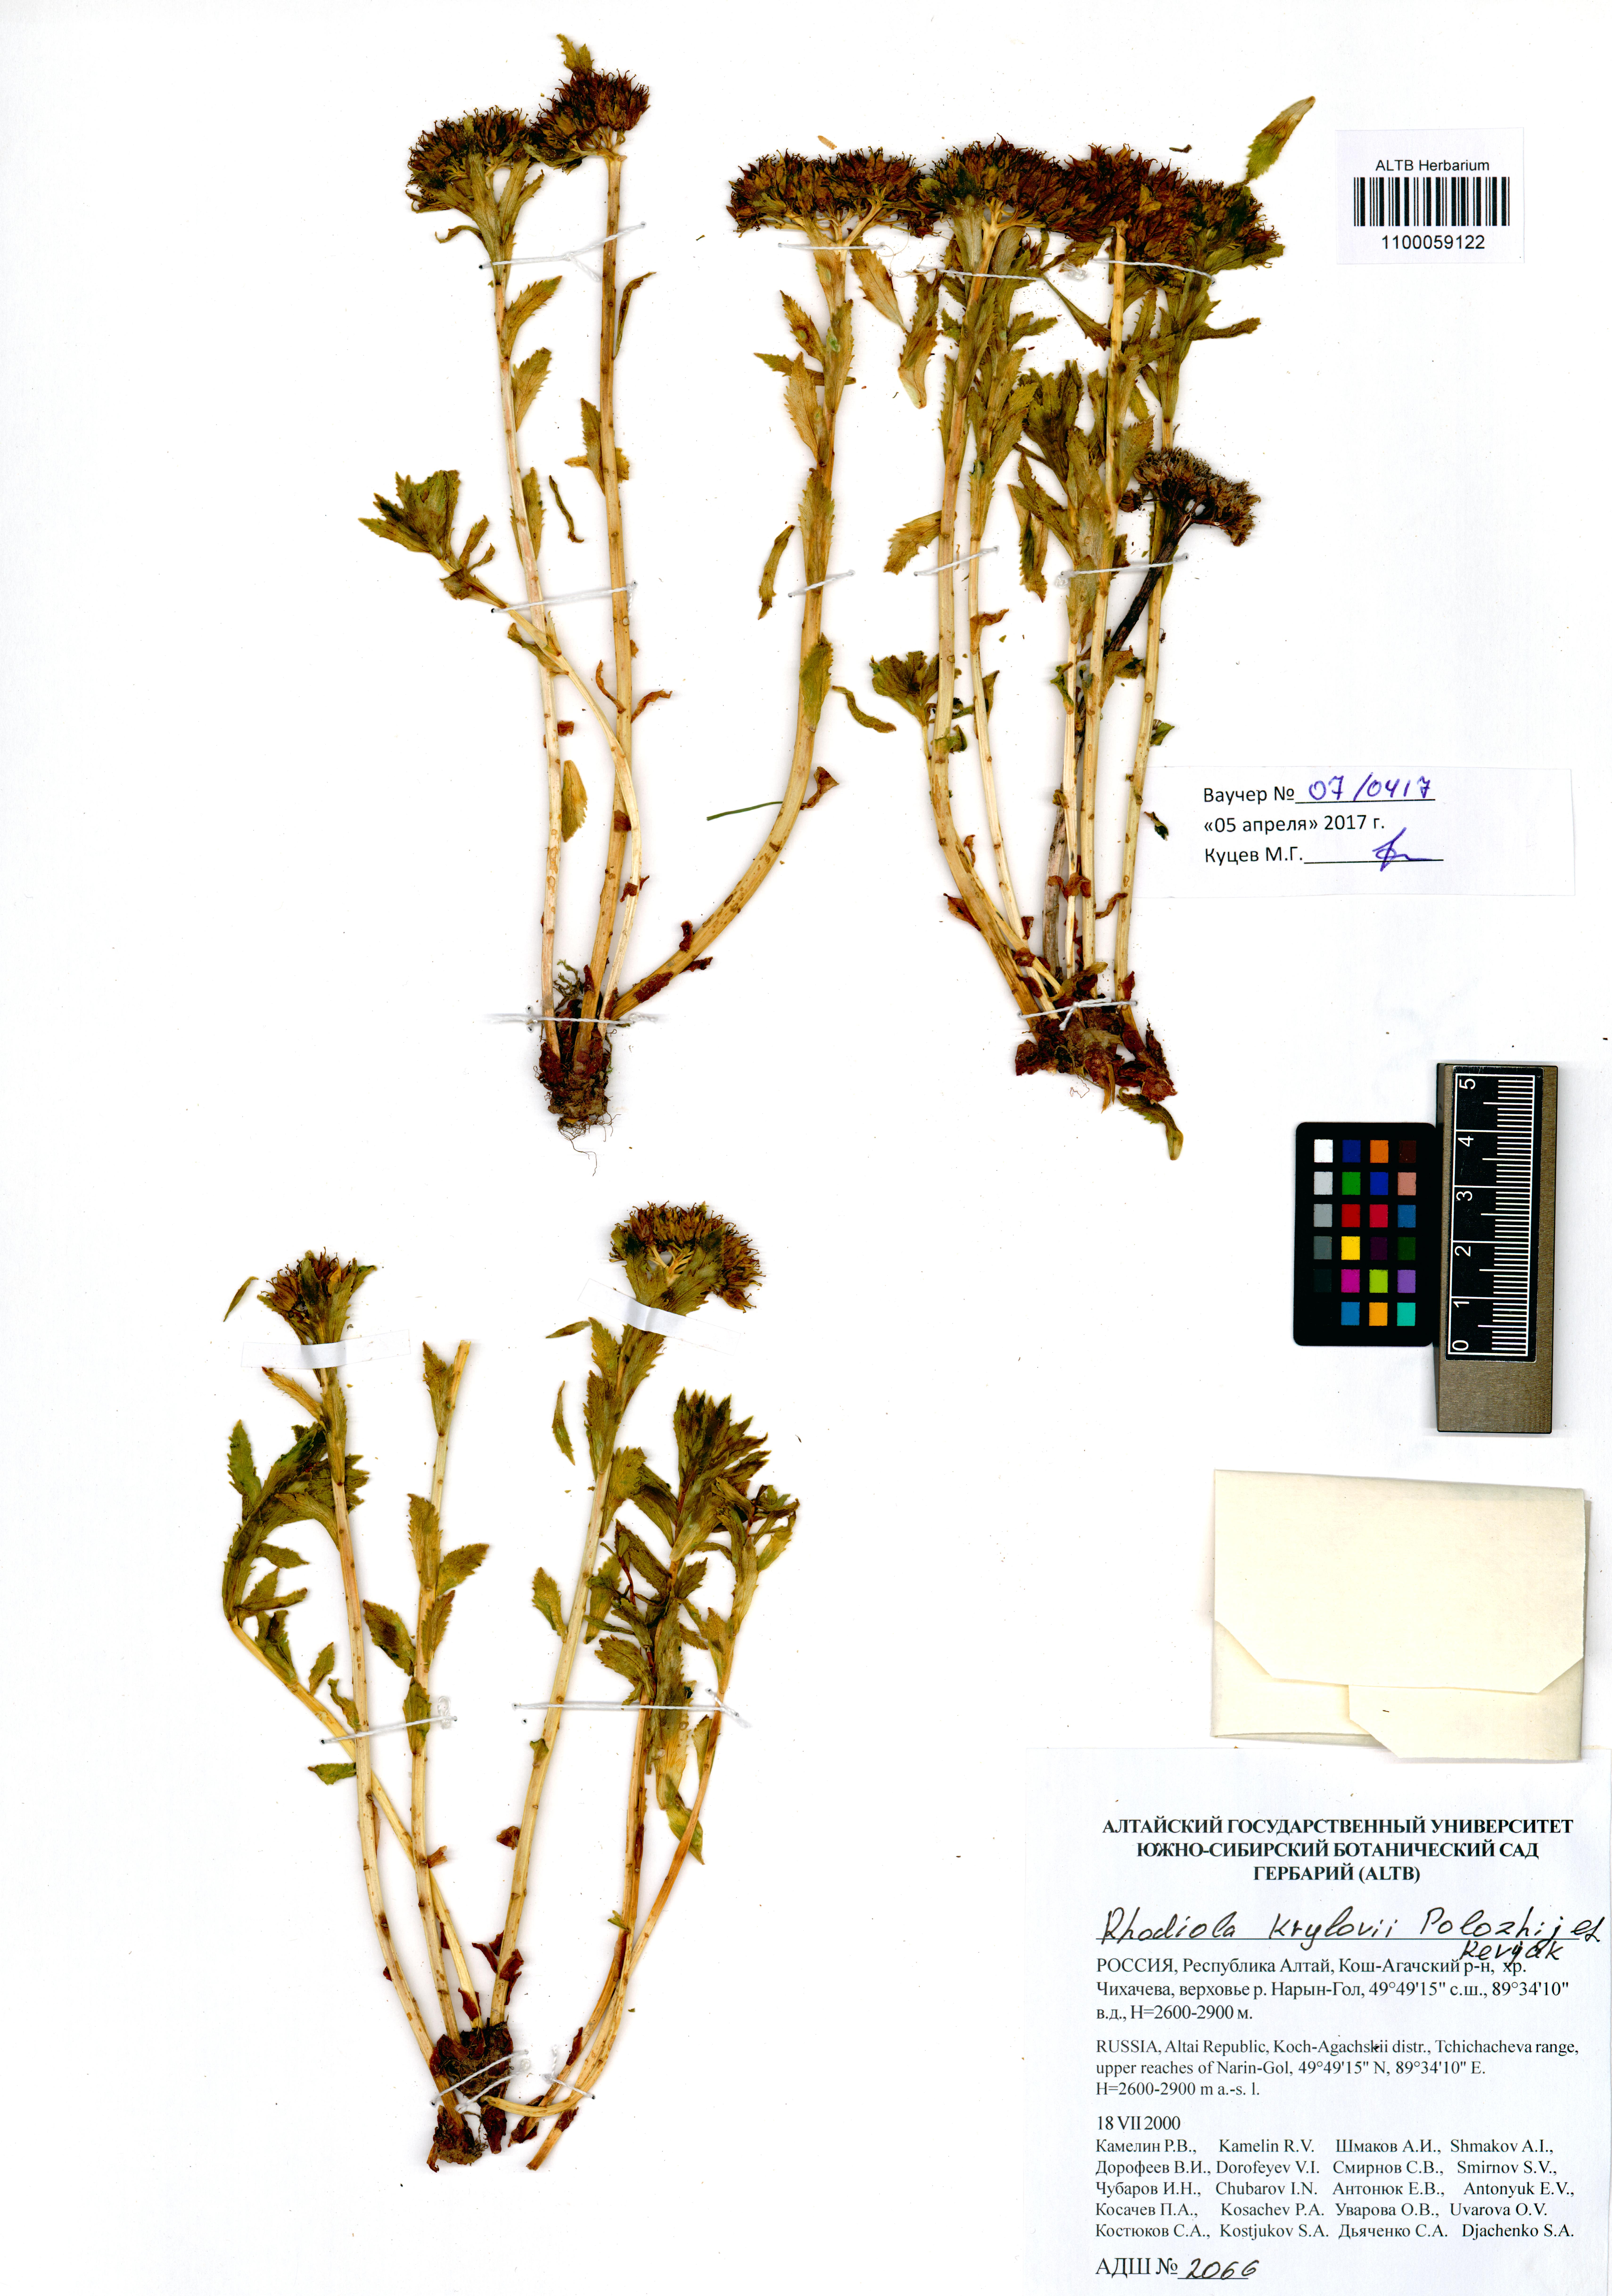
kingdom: Plantae
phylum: Tracheophyta
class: Magnoliopsida
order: Saxifragales
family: Crassulaceae
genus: Rhodiola
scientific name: Rhodiola stephani
